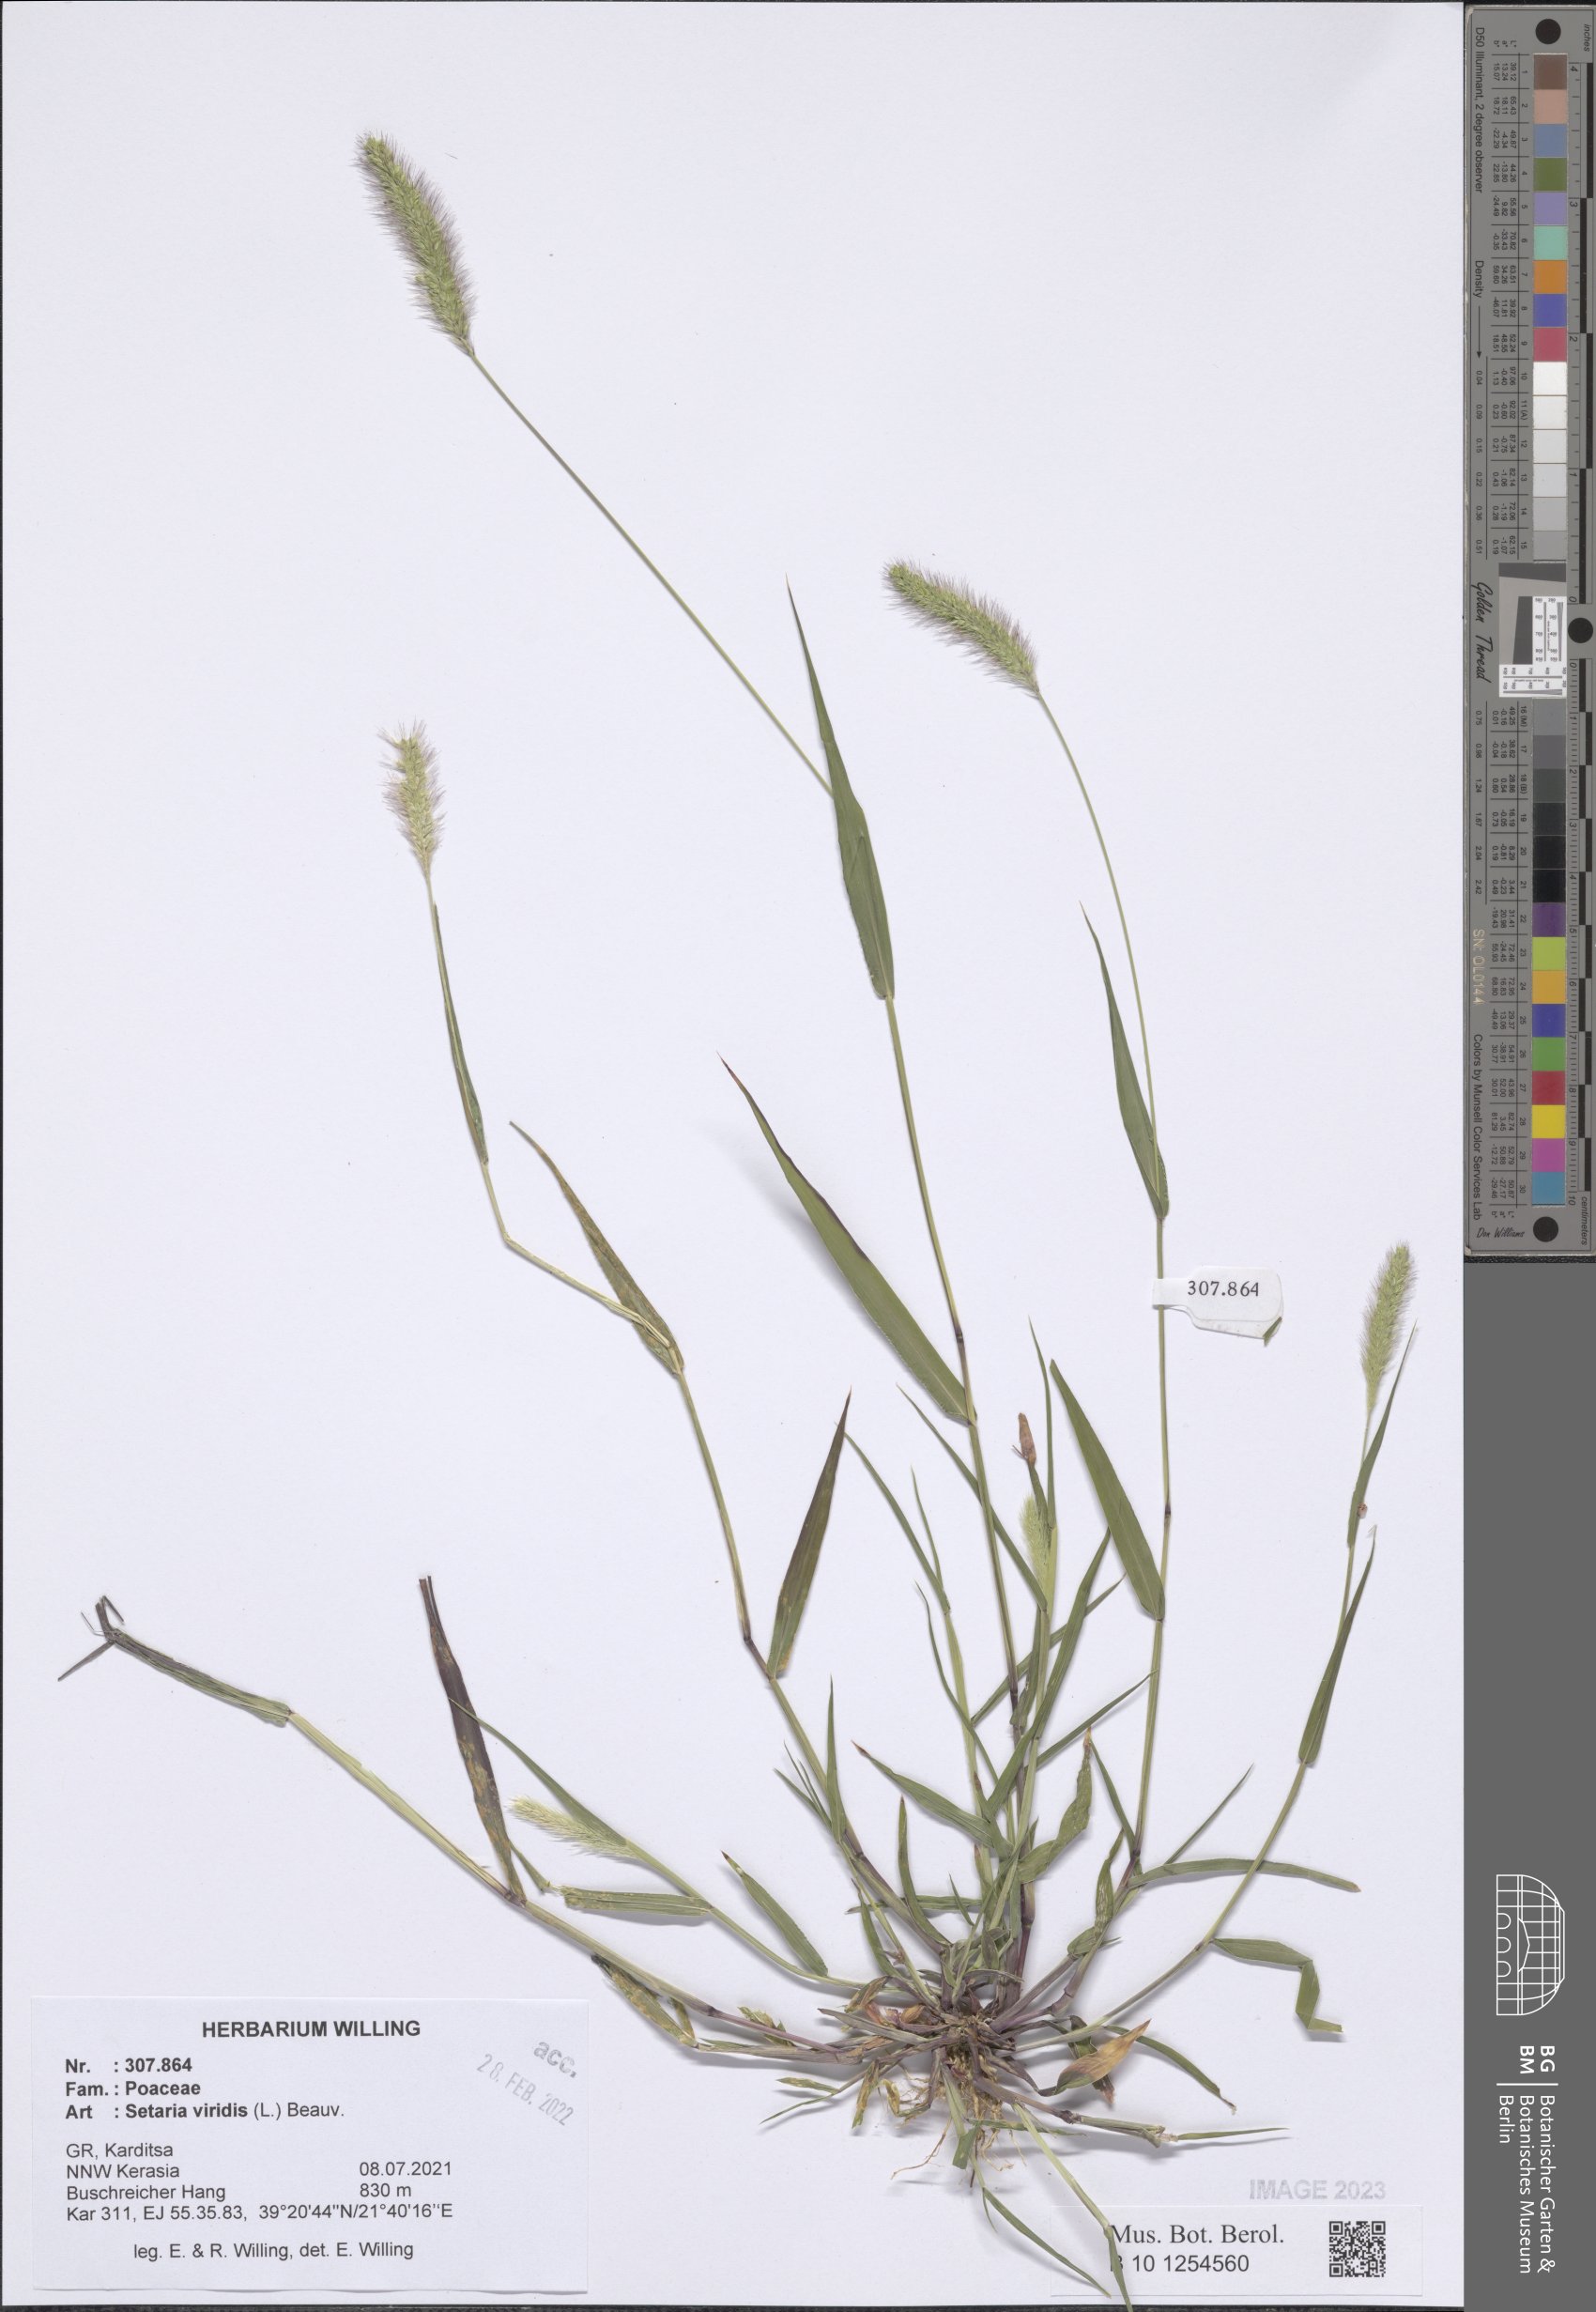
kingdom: Plantae
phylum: Tracheophyta
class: Liliopsida
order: Poales
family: Poaceae
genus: Setaria
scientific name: Setaria viridis
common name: Green bristlegrass
